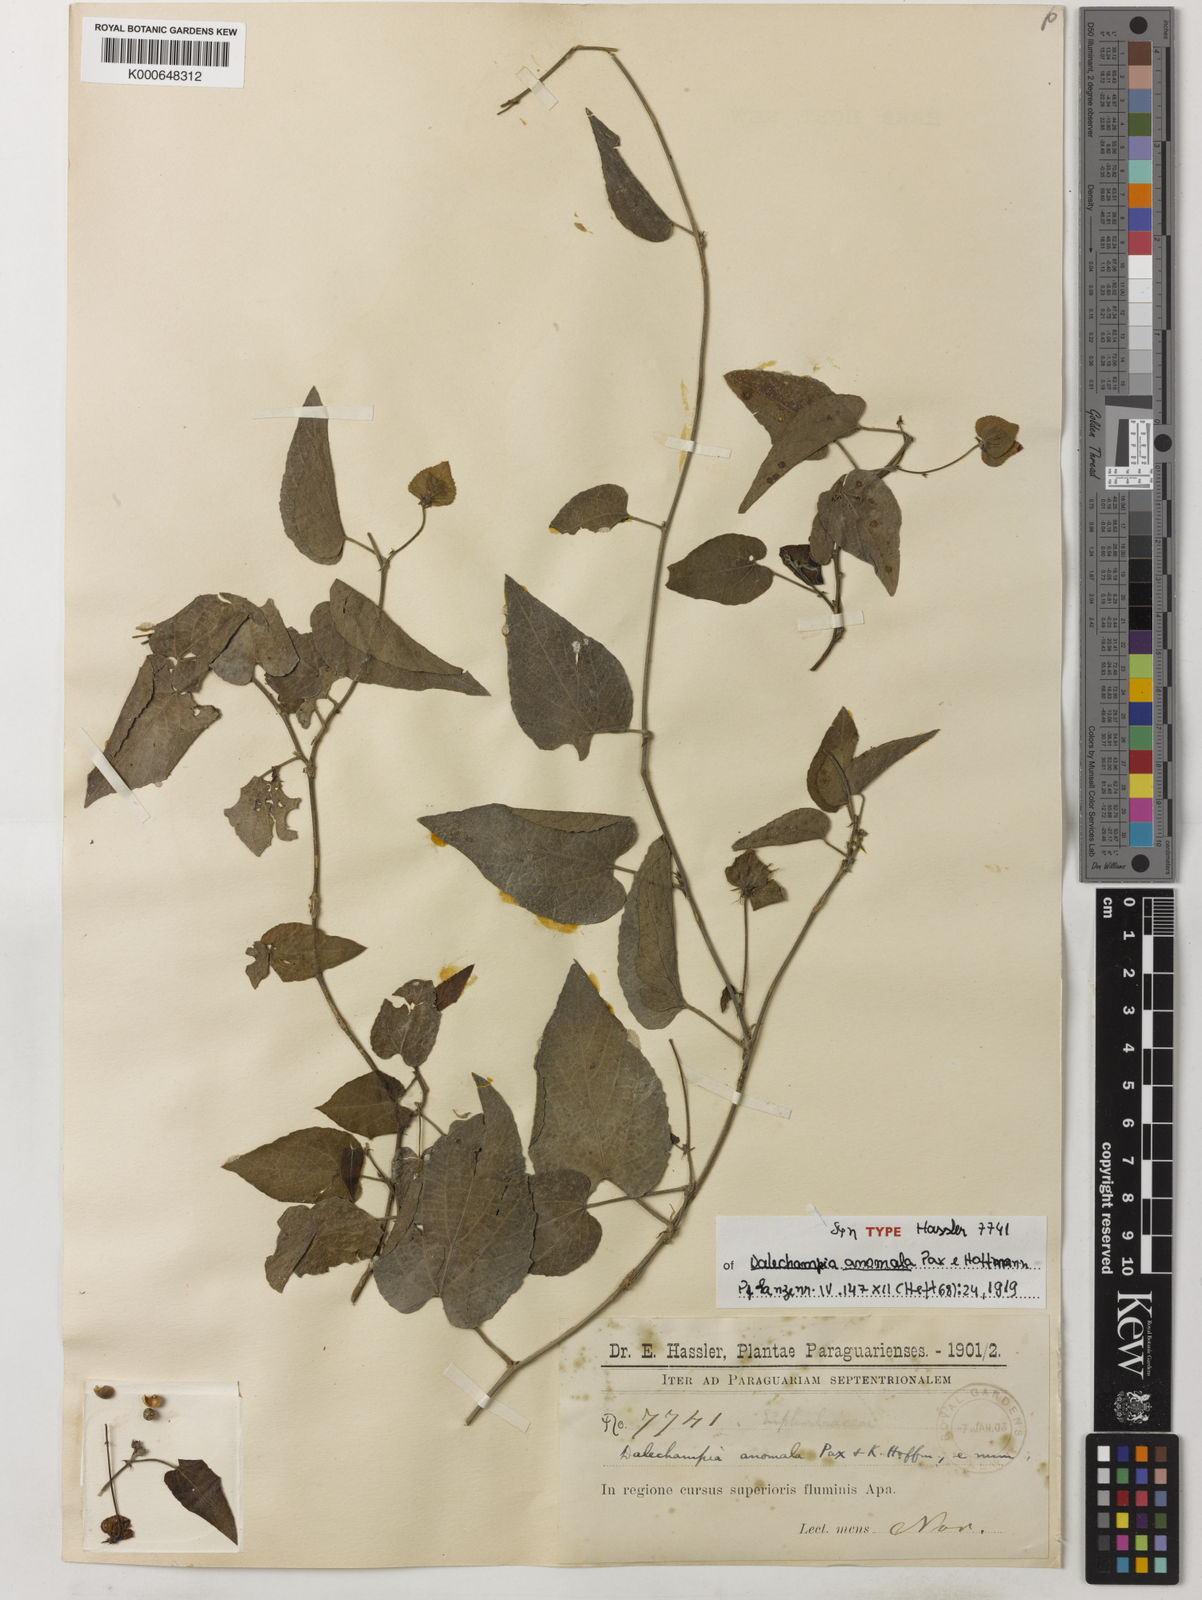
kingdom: Plantae
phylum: Tracheophyta
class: Magnoliopsida
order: Malpighiales
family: Euphorbiaceae
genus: Dalechampia
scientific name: Dalechampia anomala
